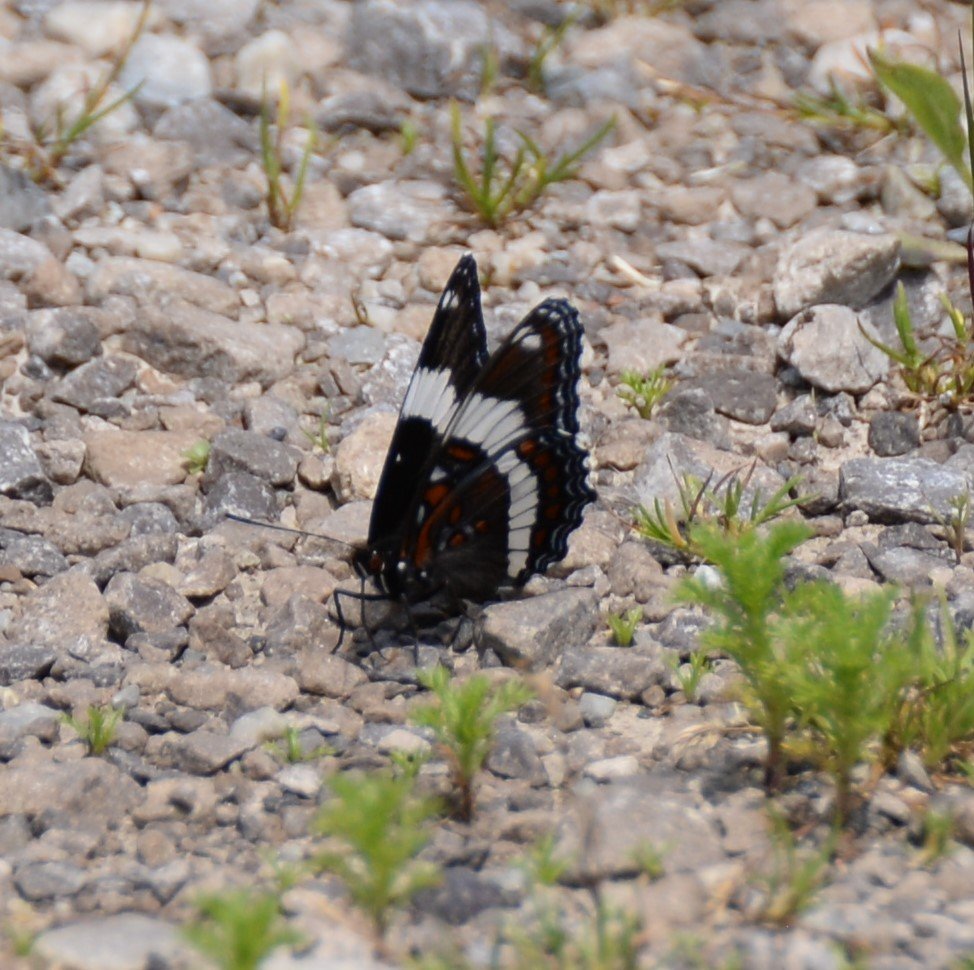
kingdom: Animalia
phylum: Arthropoda
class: Insecta
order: Lepidoptera
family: Nymphalidae
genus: Limenitis
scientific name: Limenitis arthemis
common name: Red-spotted Admiral
